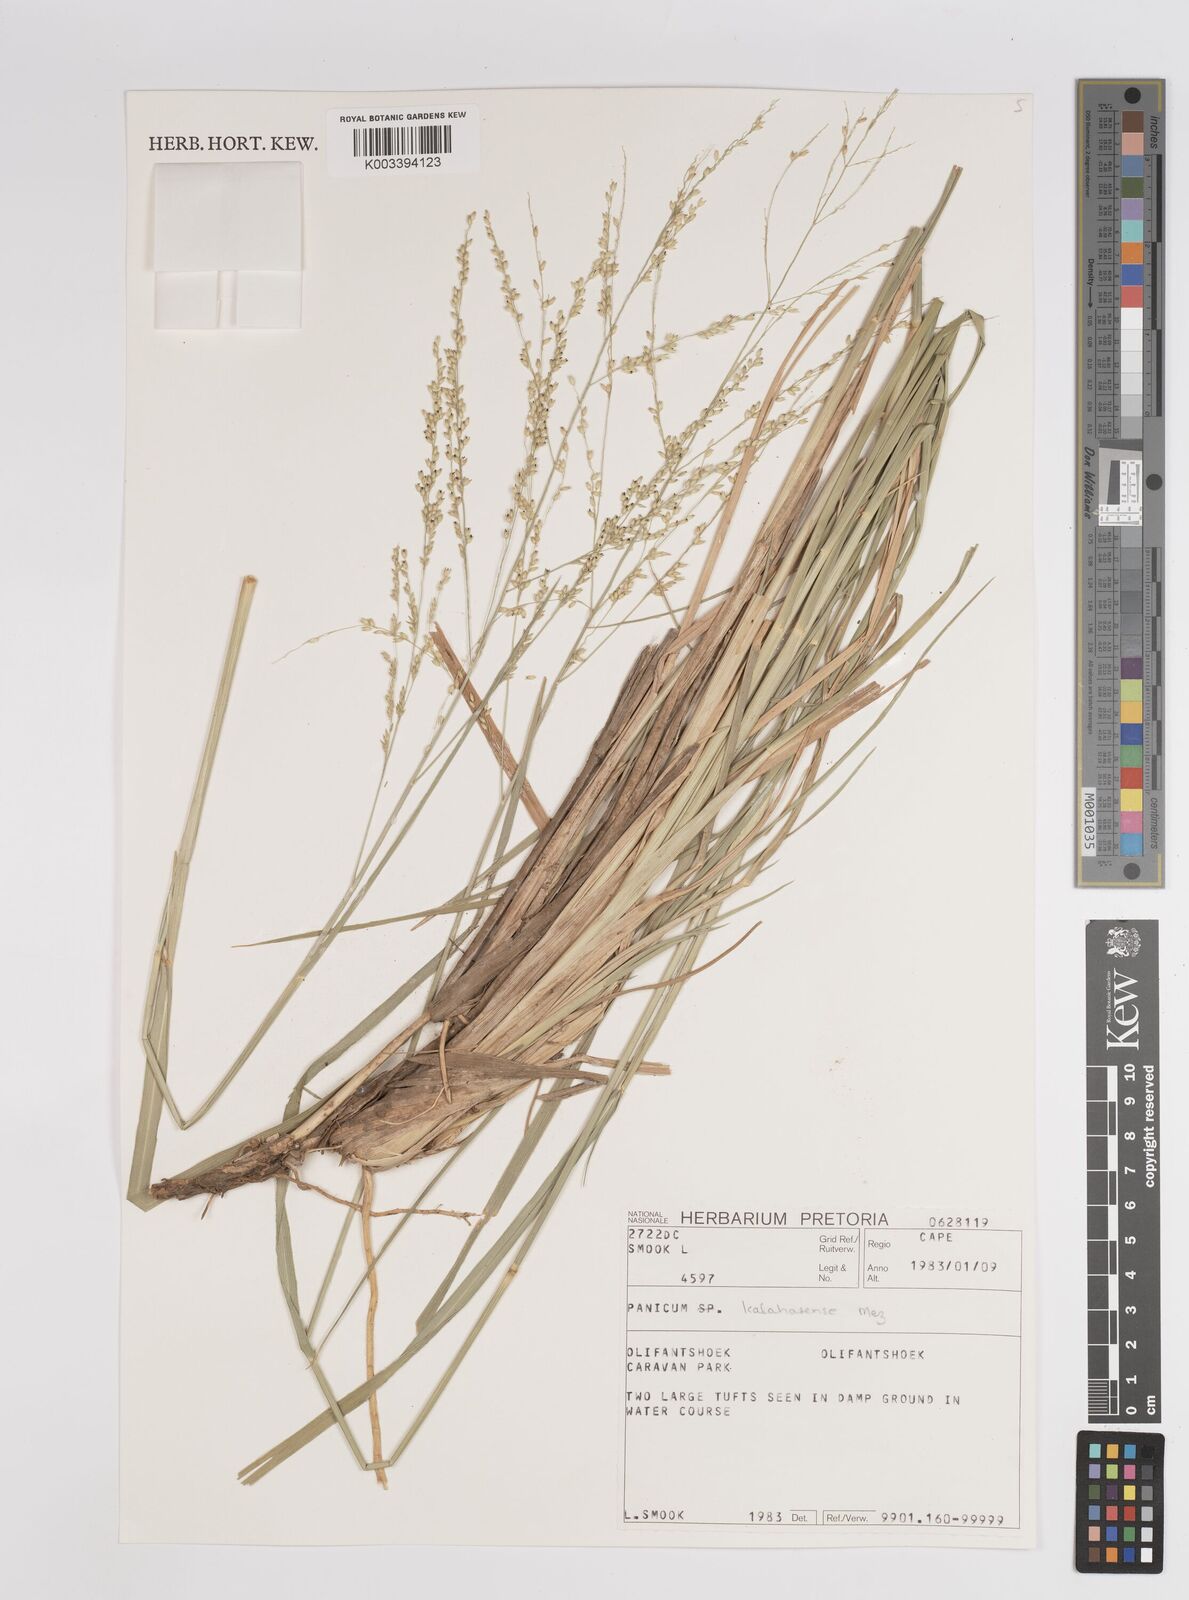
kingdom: Plantae
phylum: Tracheophyta
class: Liliopsida
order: Poales
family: Poaceae
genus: Panicum
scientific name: Panicum kalaharense
